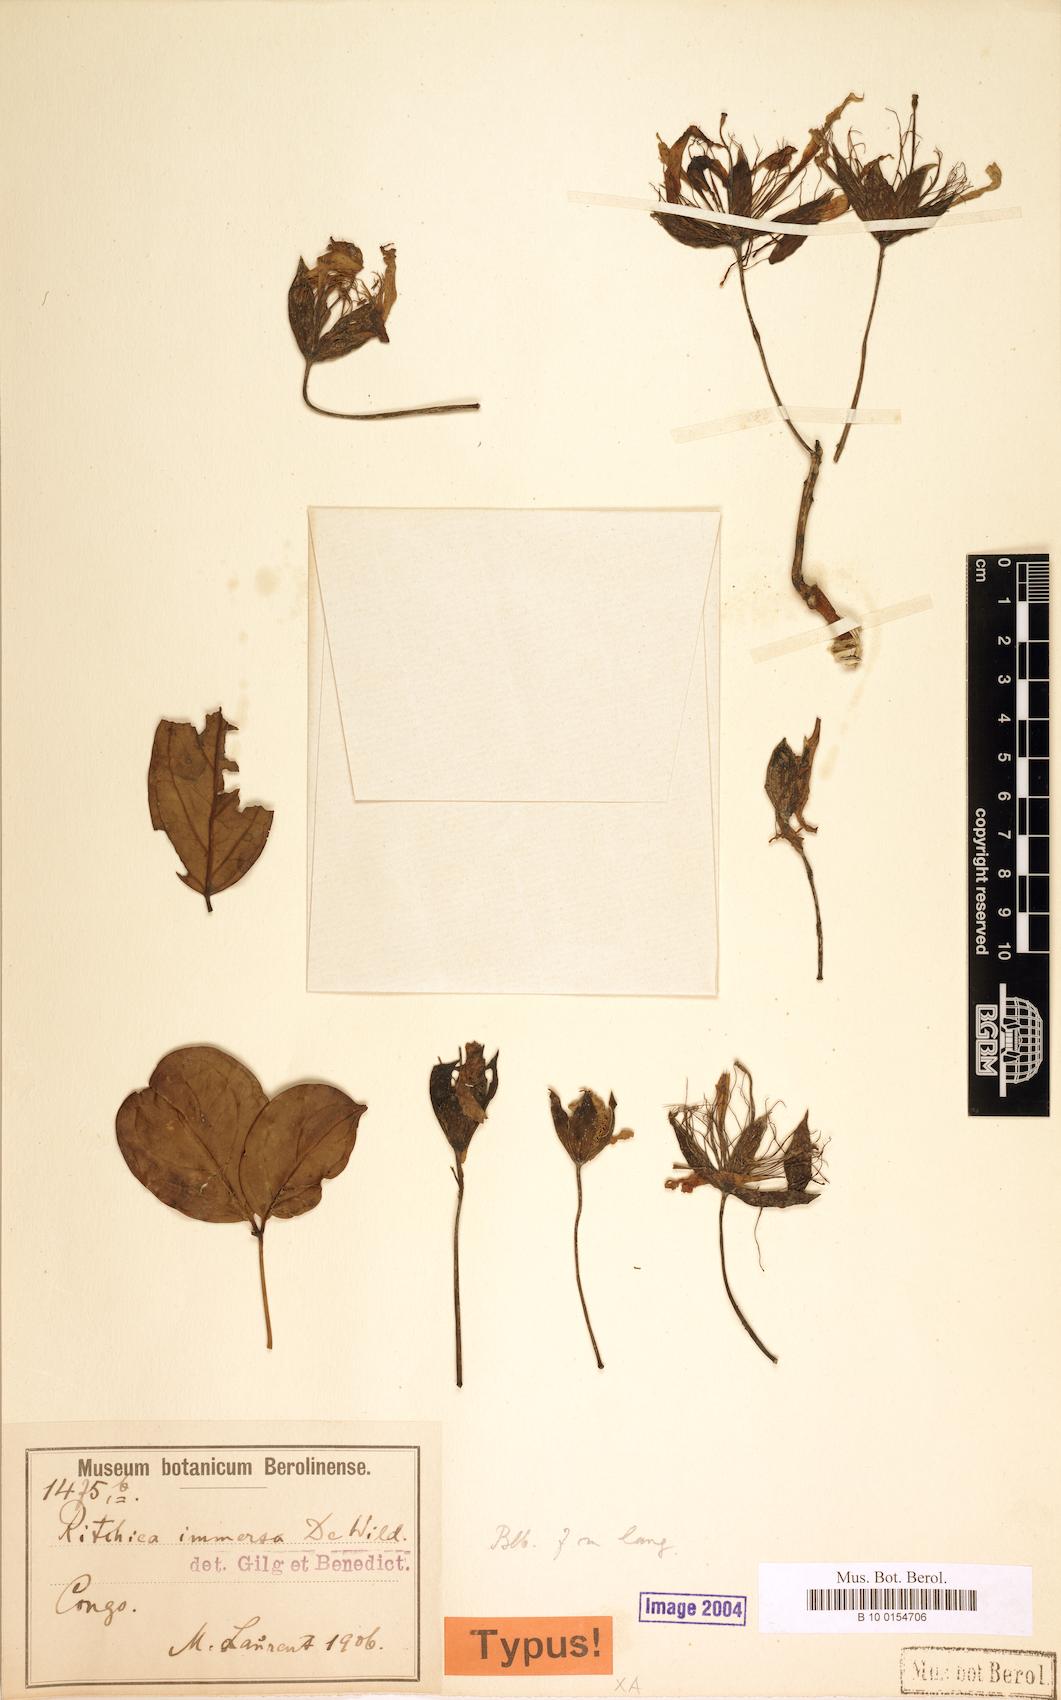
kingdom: Plantae
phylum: Tracheophyta
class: Magnoliopsida
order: Brassicales
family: Capparaceae
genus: Ritchiea
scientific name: Ritchiea capparoides
